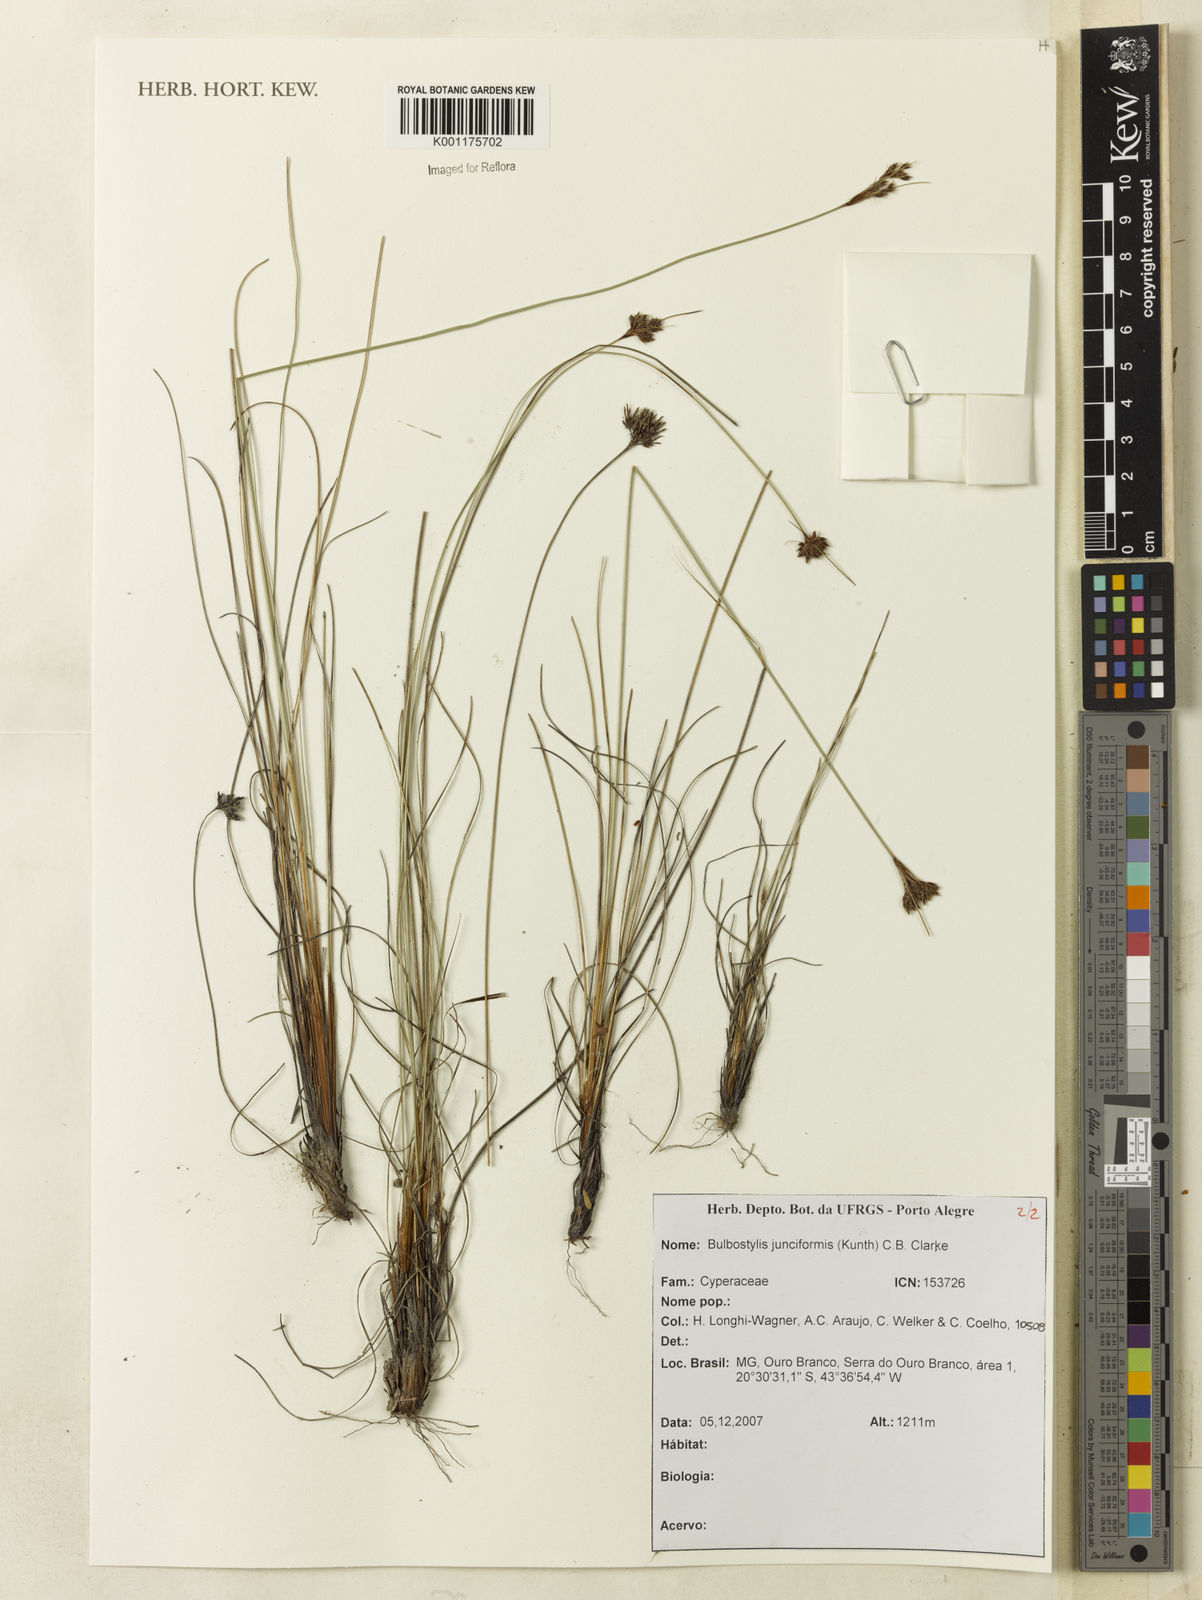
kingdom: Plantae
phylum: Tracheophyta
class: Liliopsida
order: Poales
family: Cyperaceae
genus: Bulbostylis
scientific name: Bulbostylis junciformis
